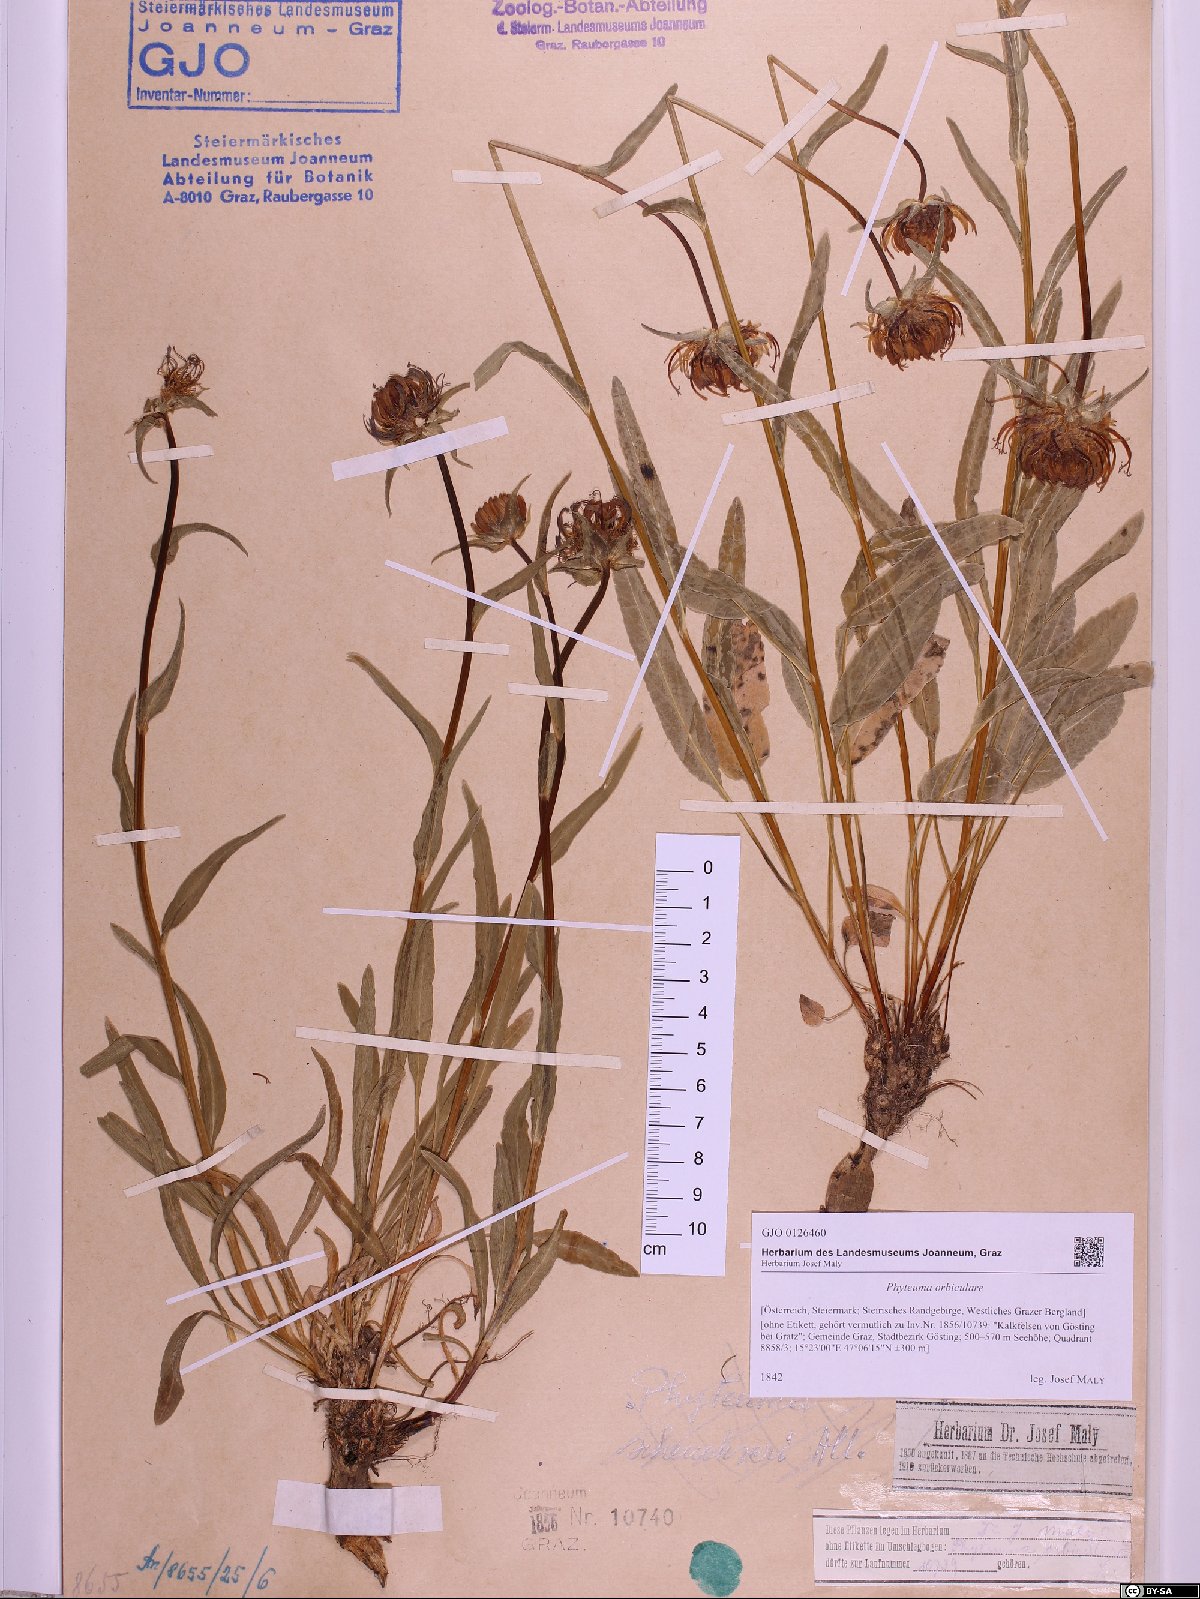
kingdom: Plantae
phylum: Tracheophyta
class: Magnoliopsida
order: Asterales
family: Campanulaceae
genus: Phyteuma
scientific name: Phyteuma orbiculare
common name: Round-headed rampion
